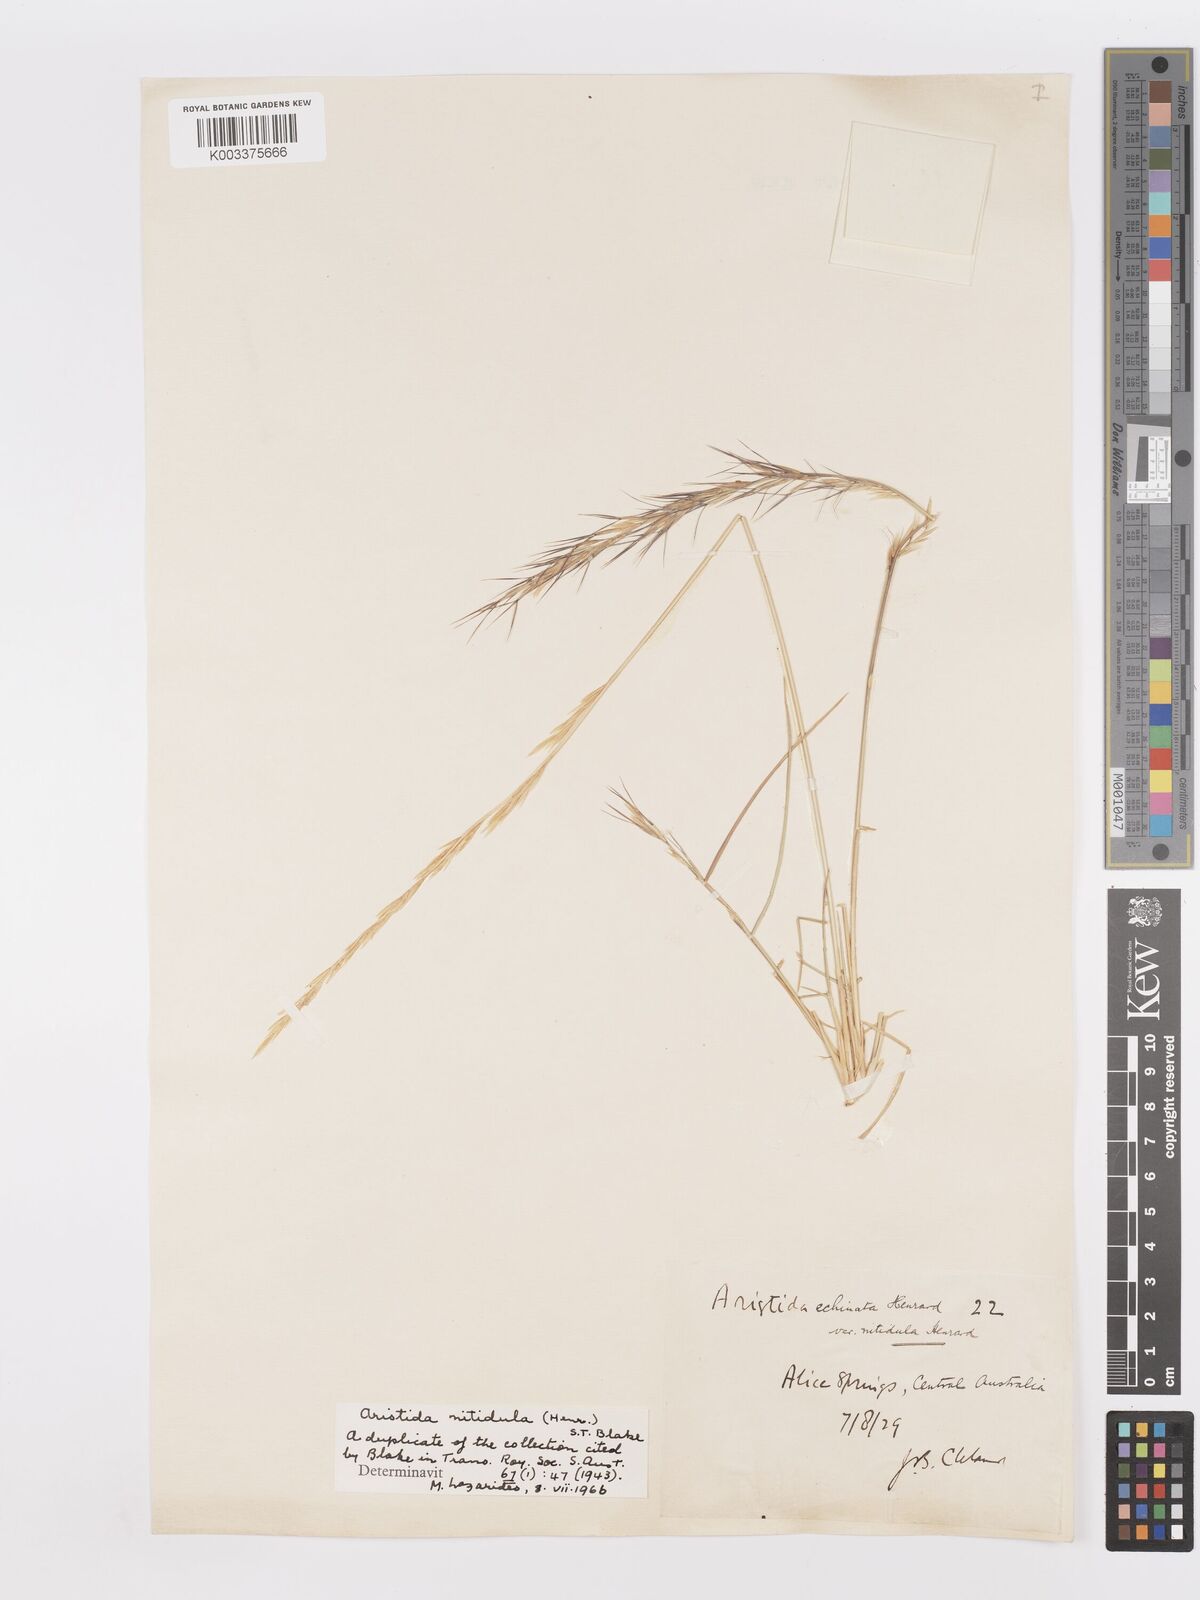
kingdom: Plantae
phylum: Tracheophyta
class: Liliopsida
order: Poales
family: Poaceae
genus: Aristida
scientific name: Aristida nitidula
